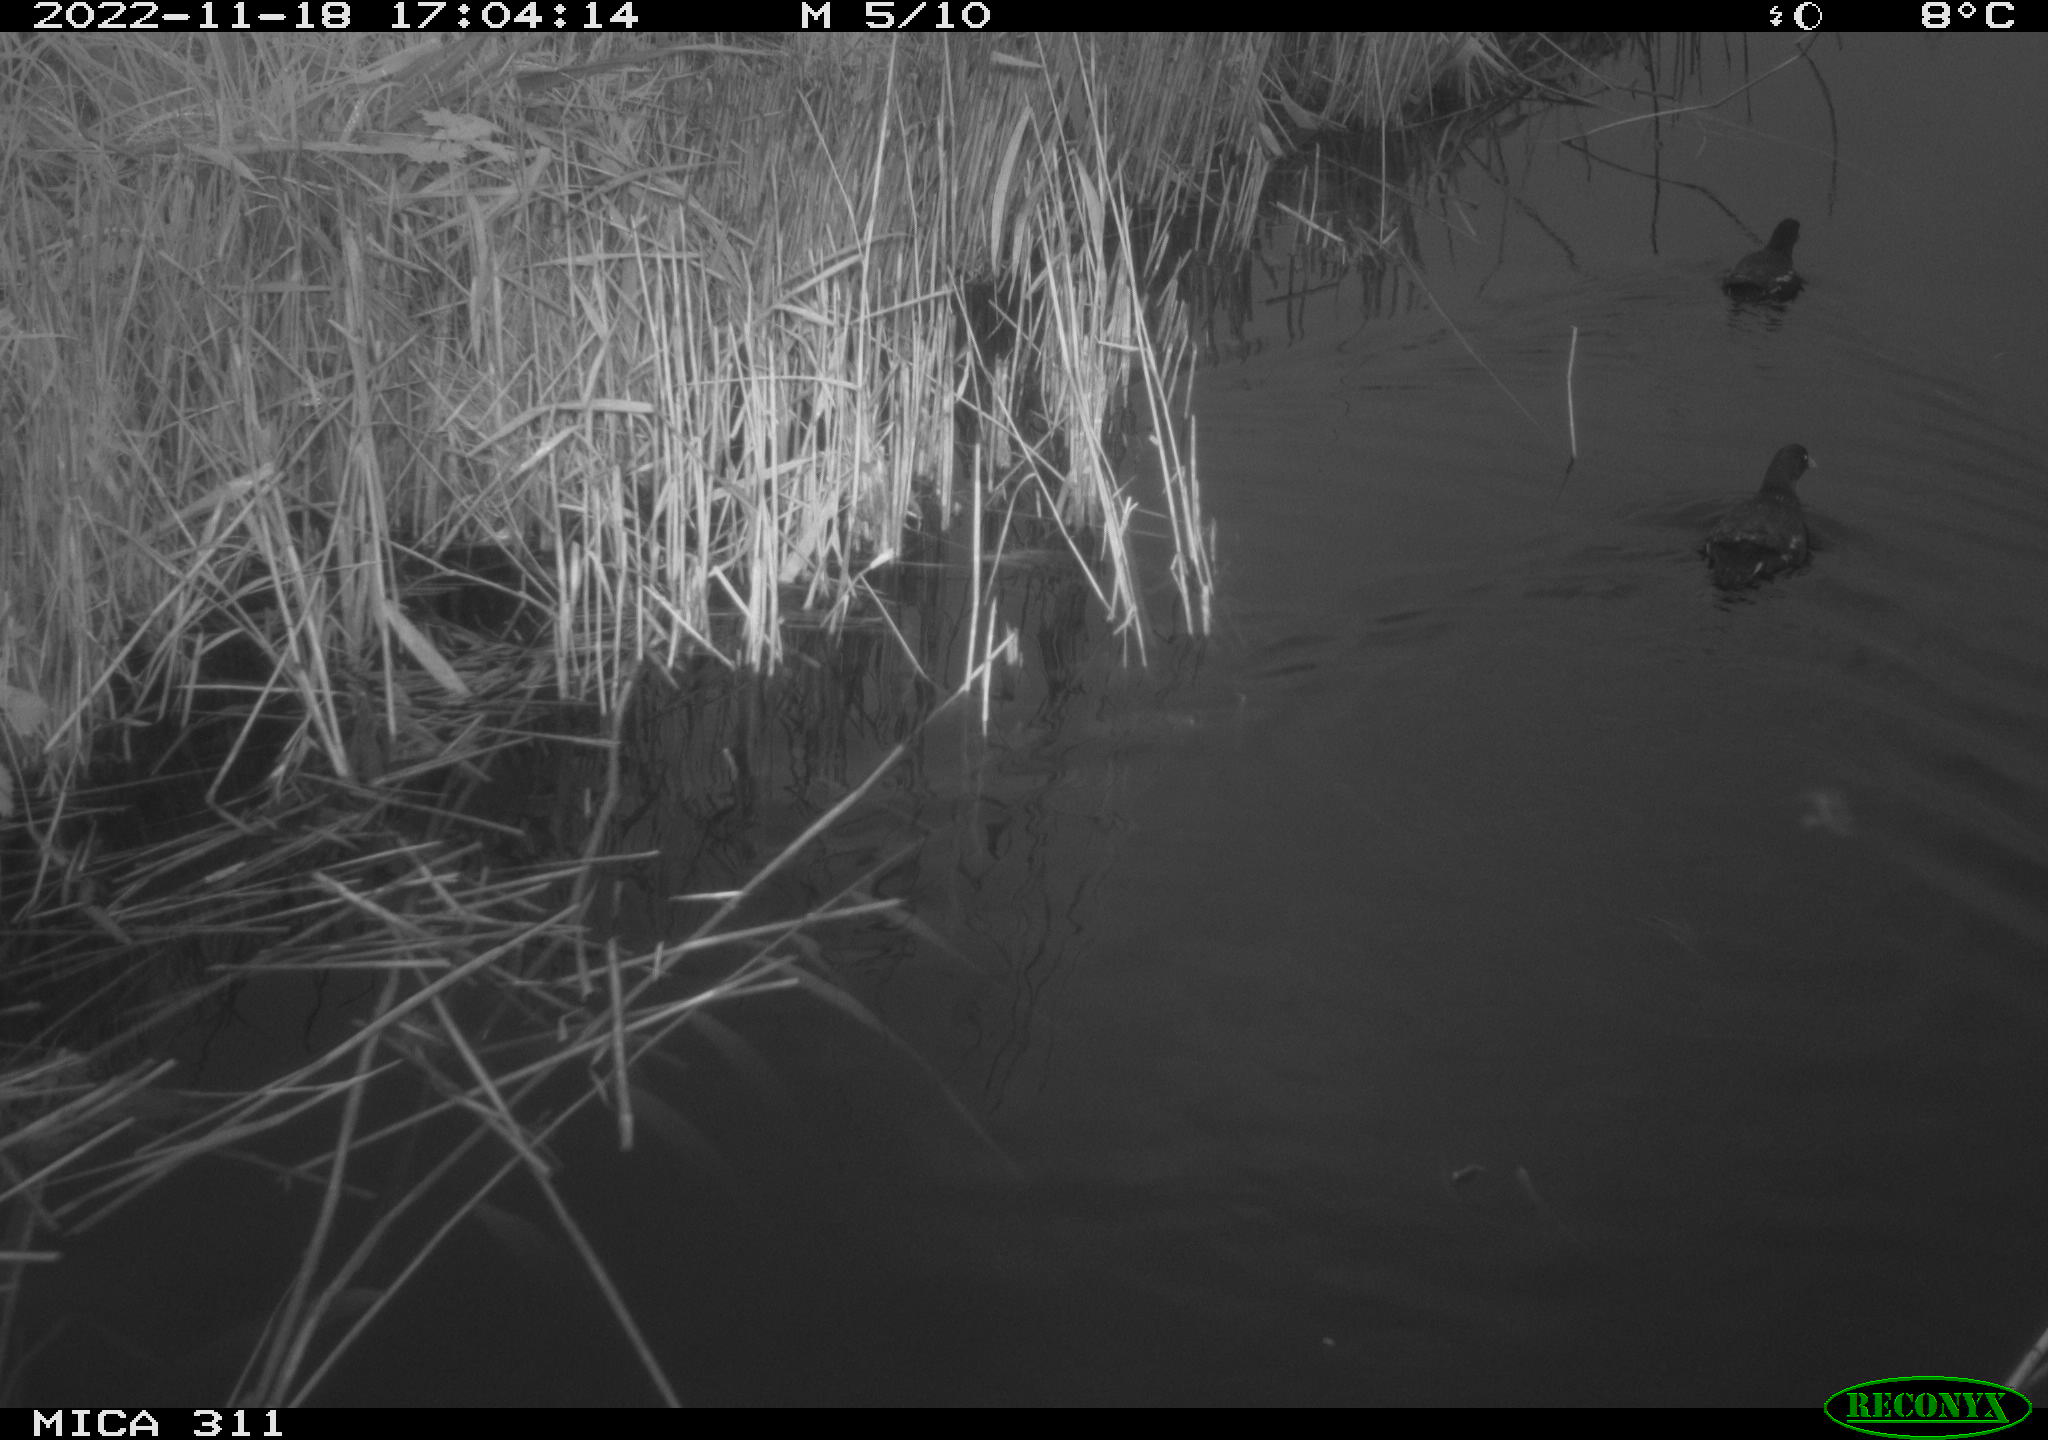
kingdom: Animalia
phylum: Chordata
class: Aves
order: Gruiformes
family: Rallidae
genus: Fulica
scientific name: Fulica atra
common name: Eurasian coot
